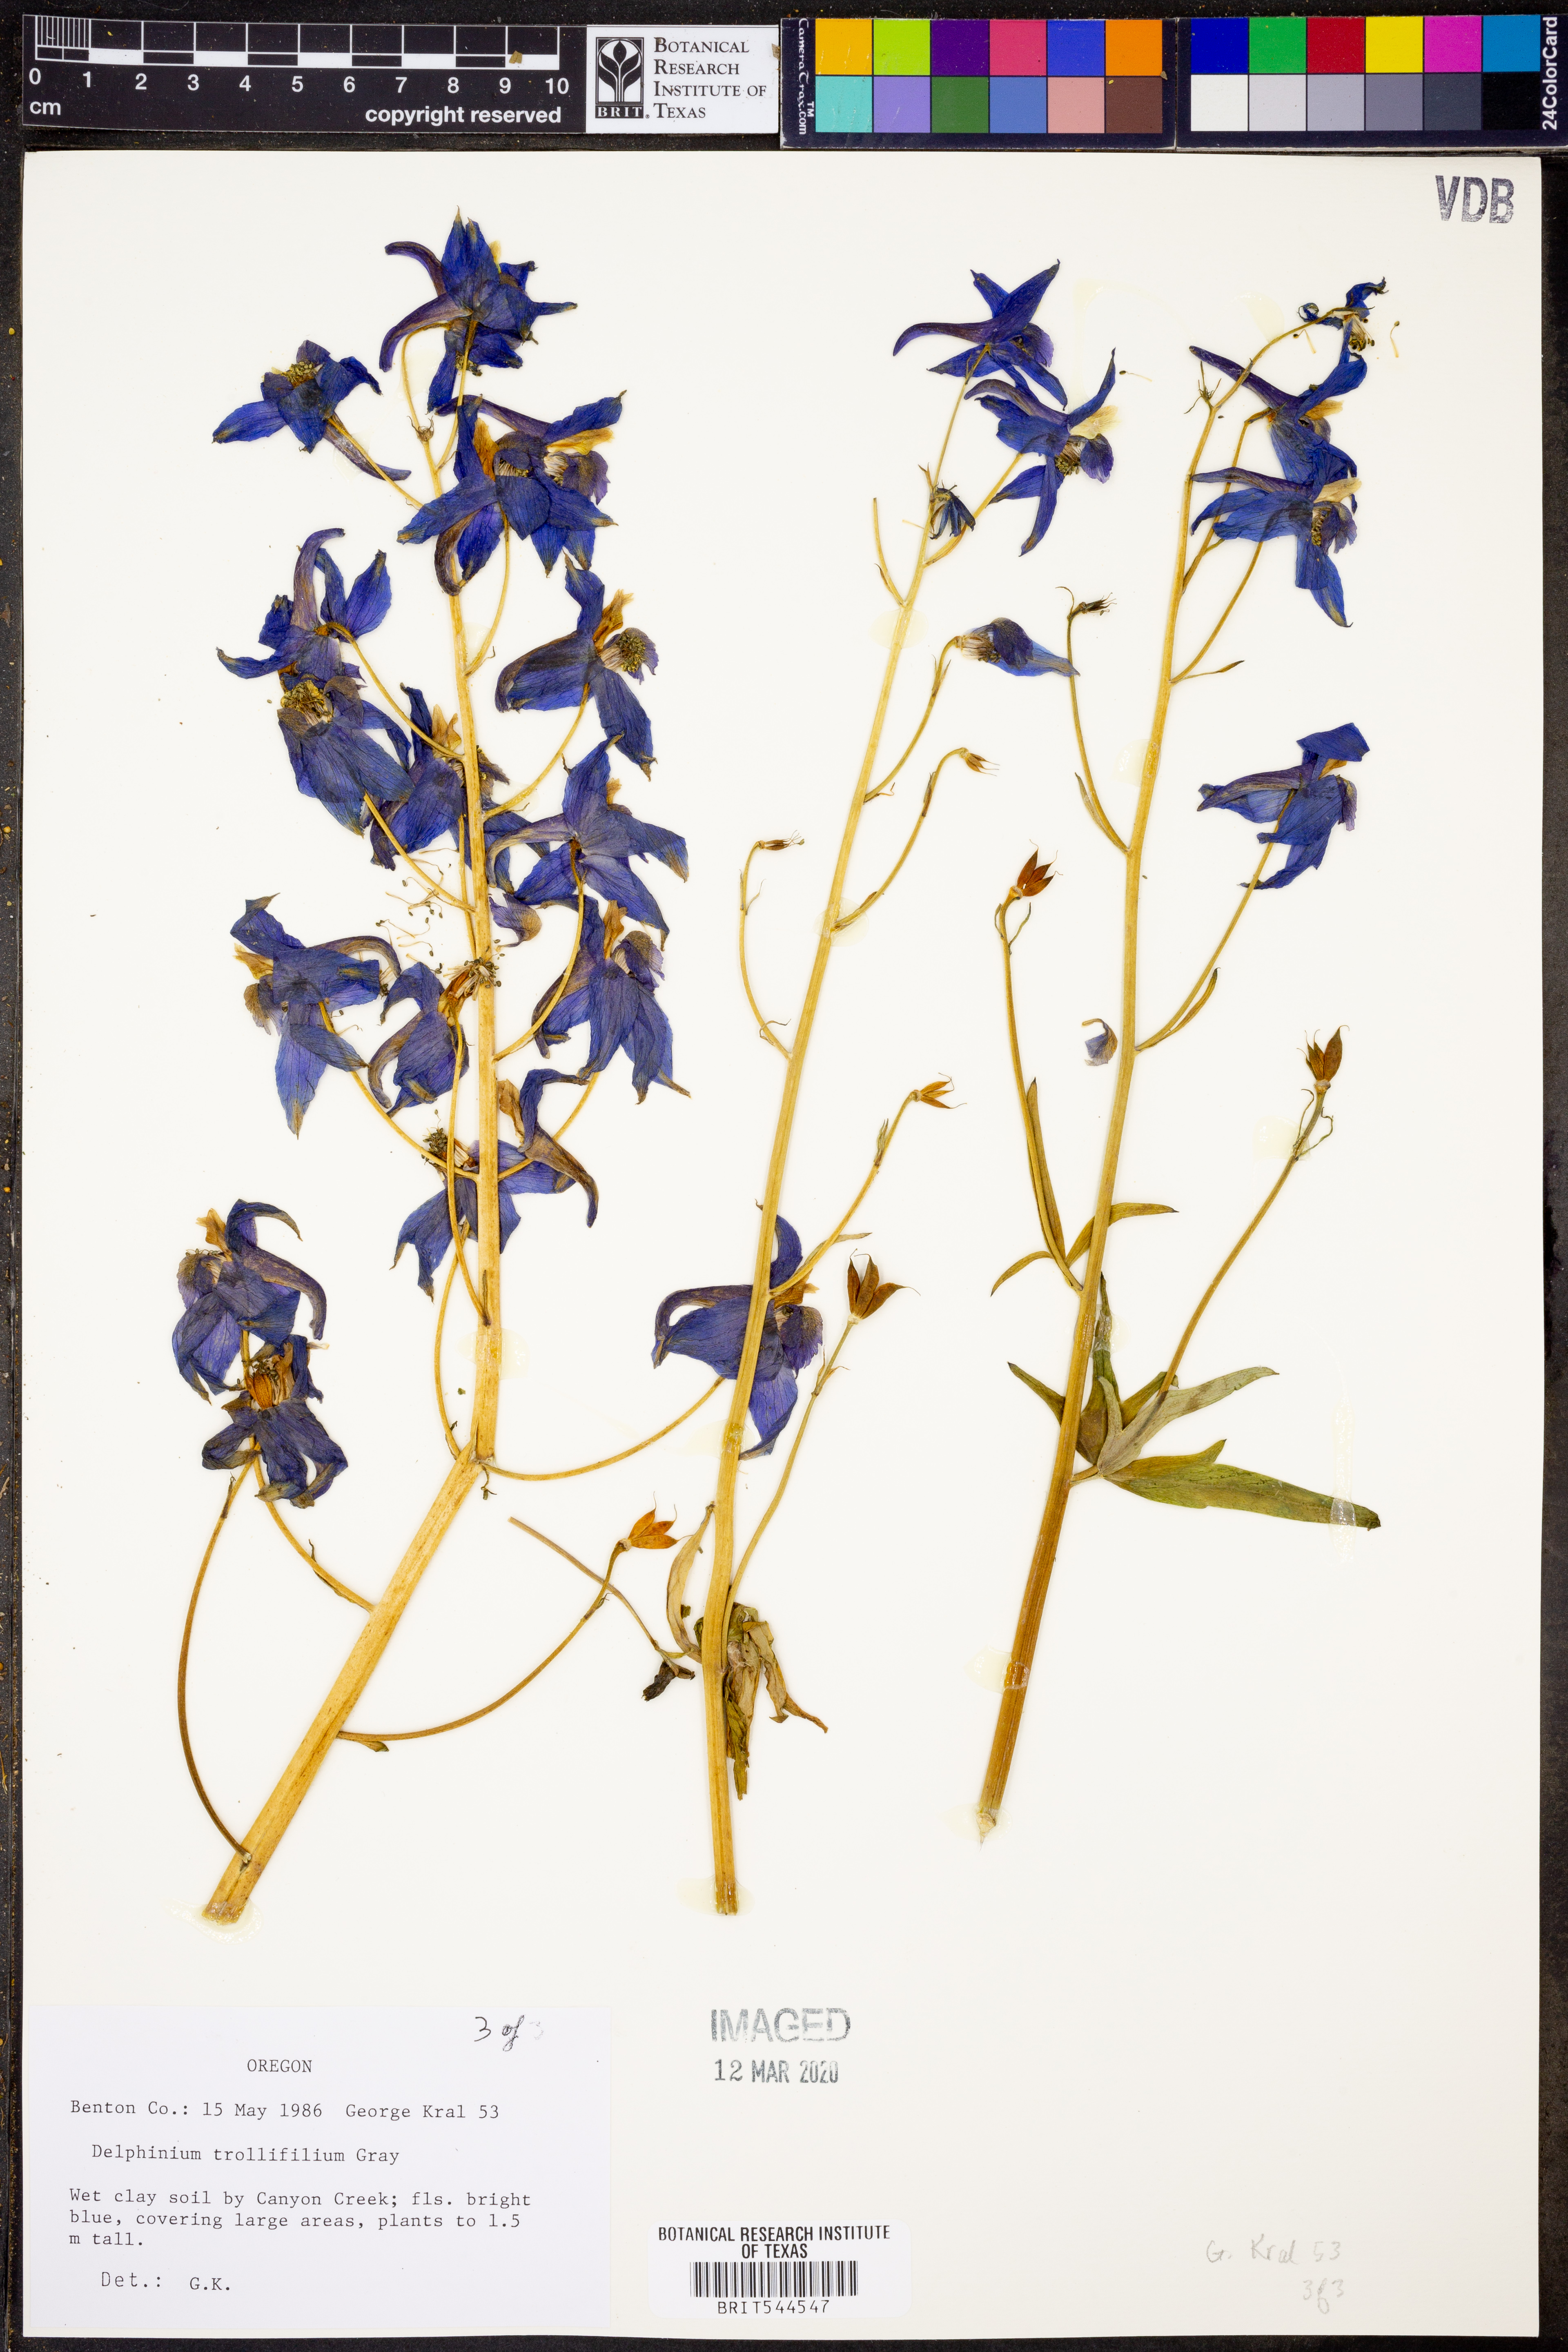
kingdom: Plantae
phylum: Tracheophyta
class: Magnoliopsida
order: Ranunculales
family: Ranunculaceae
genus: Delphinium
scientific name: Delphinium trolliifolium
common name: Cow-poison
